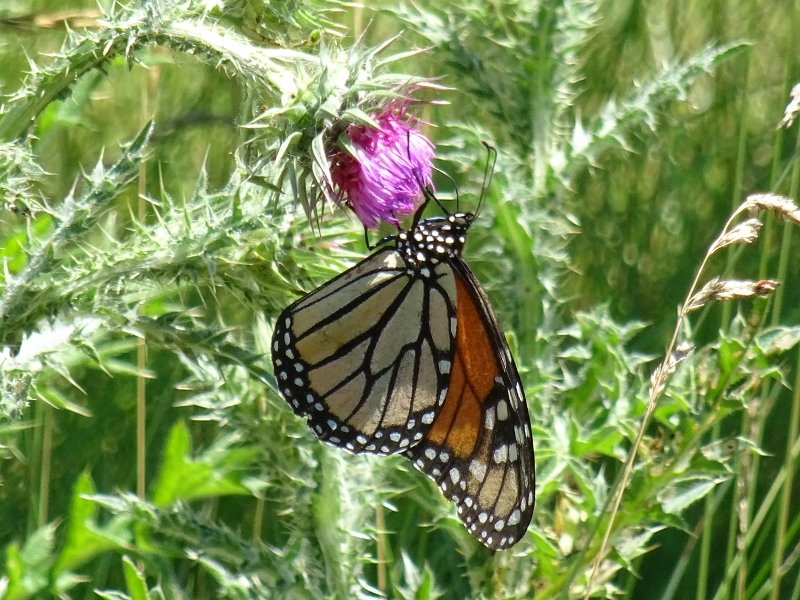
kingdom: Animalia
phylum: Arthropoda
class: Insecta
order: Lepidoptera
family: Nymphalidae
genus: Danaus
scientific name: Danaus plexippus
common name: Monarch
